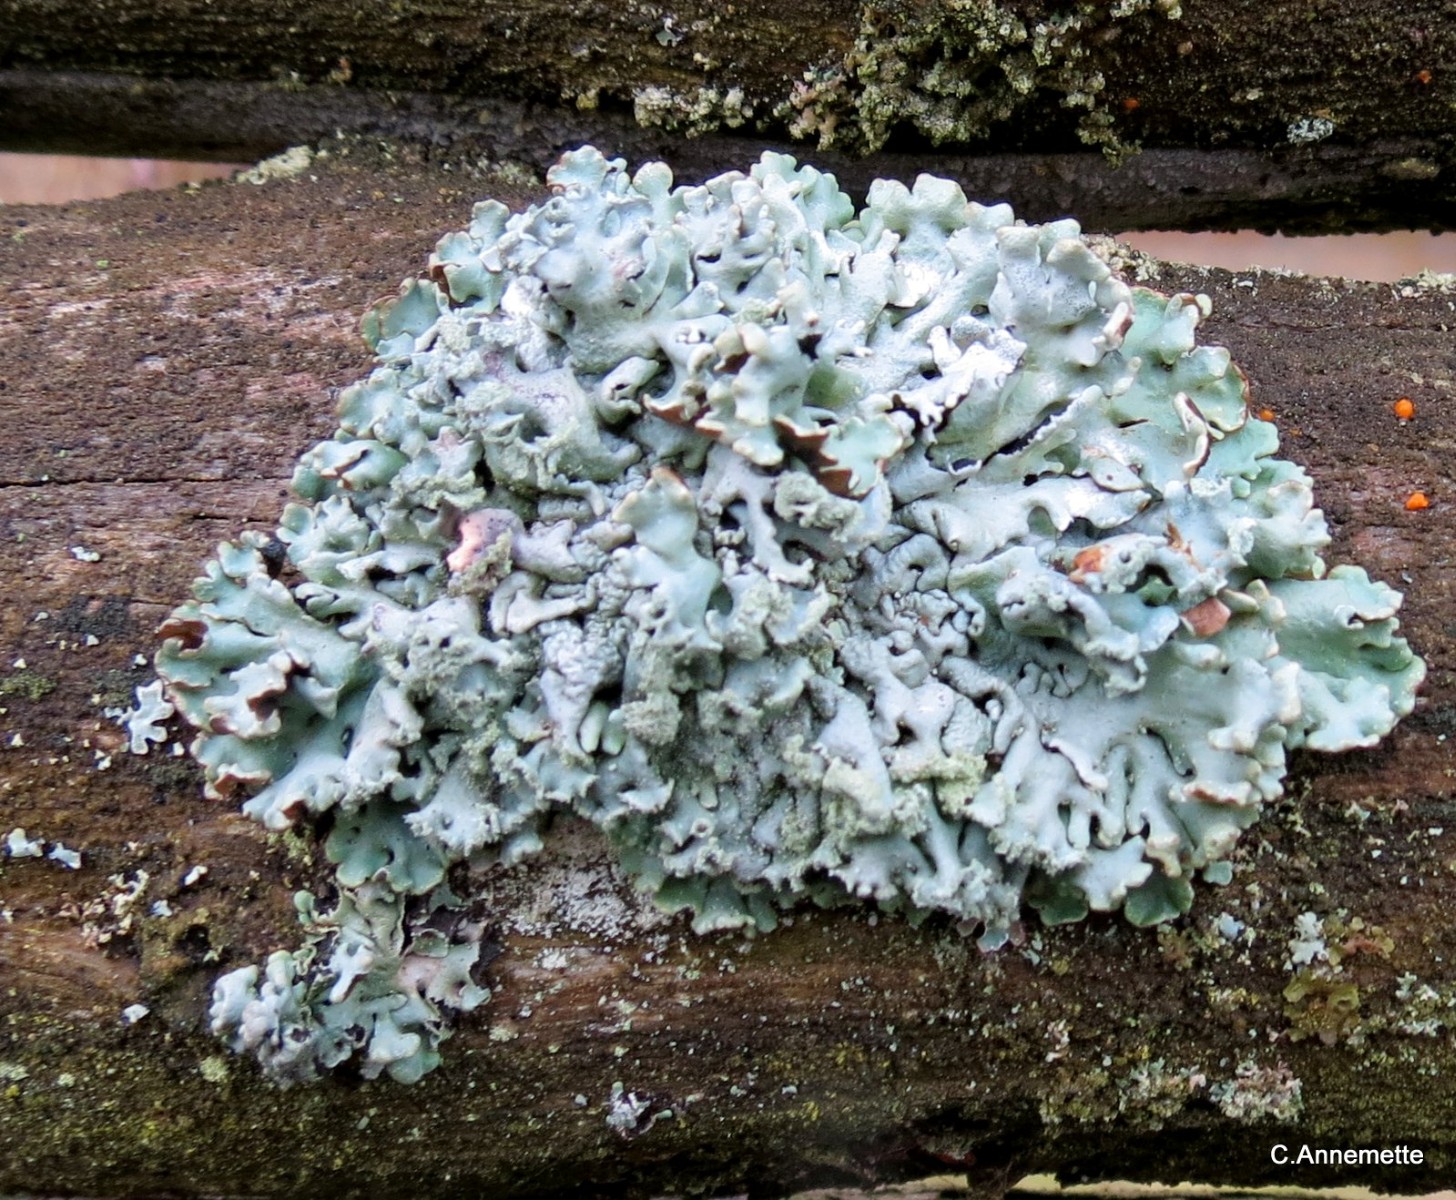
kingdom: Fungi
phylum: Ascomycota
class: Lecanoromycetes
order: Lecanorales
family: Parmeliaceae
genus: Hypogymnia
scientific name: Hypogymnia physodes
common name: almindelig kvistlav
